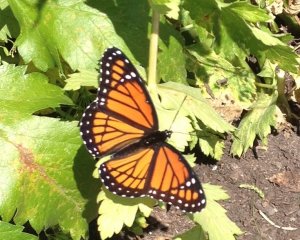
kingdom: Animalia
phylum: Arthropoda
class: Insecta
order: Lepidoptera
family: Nymphalidae
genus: Limenitis
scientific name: Limenitis archippus
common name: Viceroy
